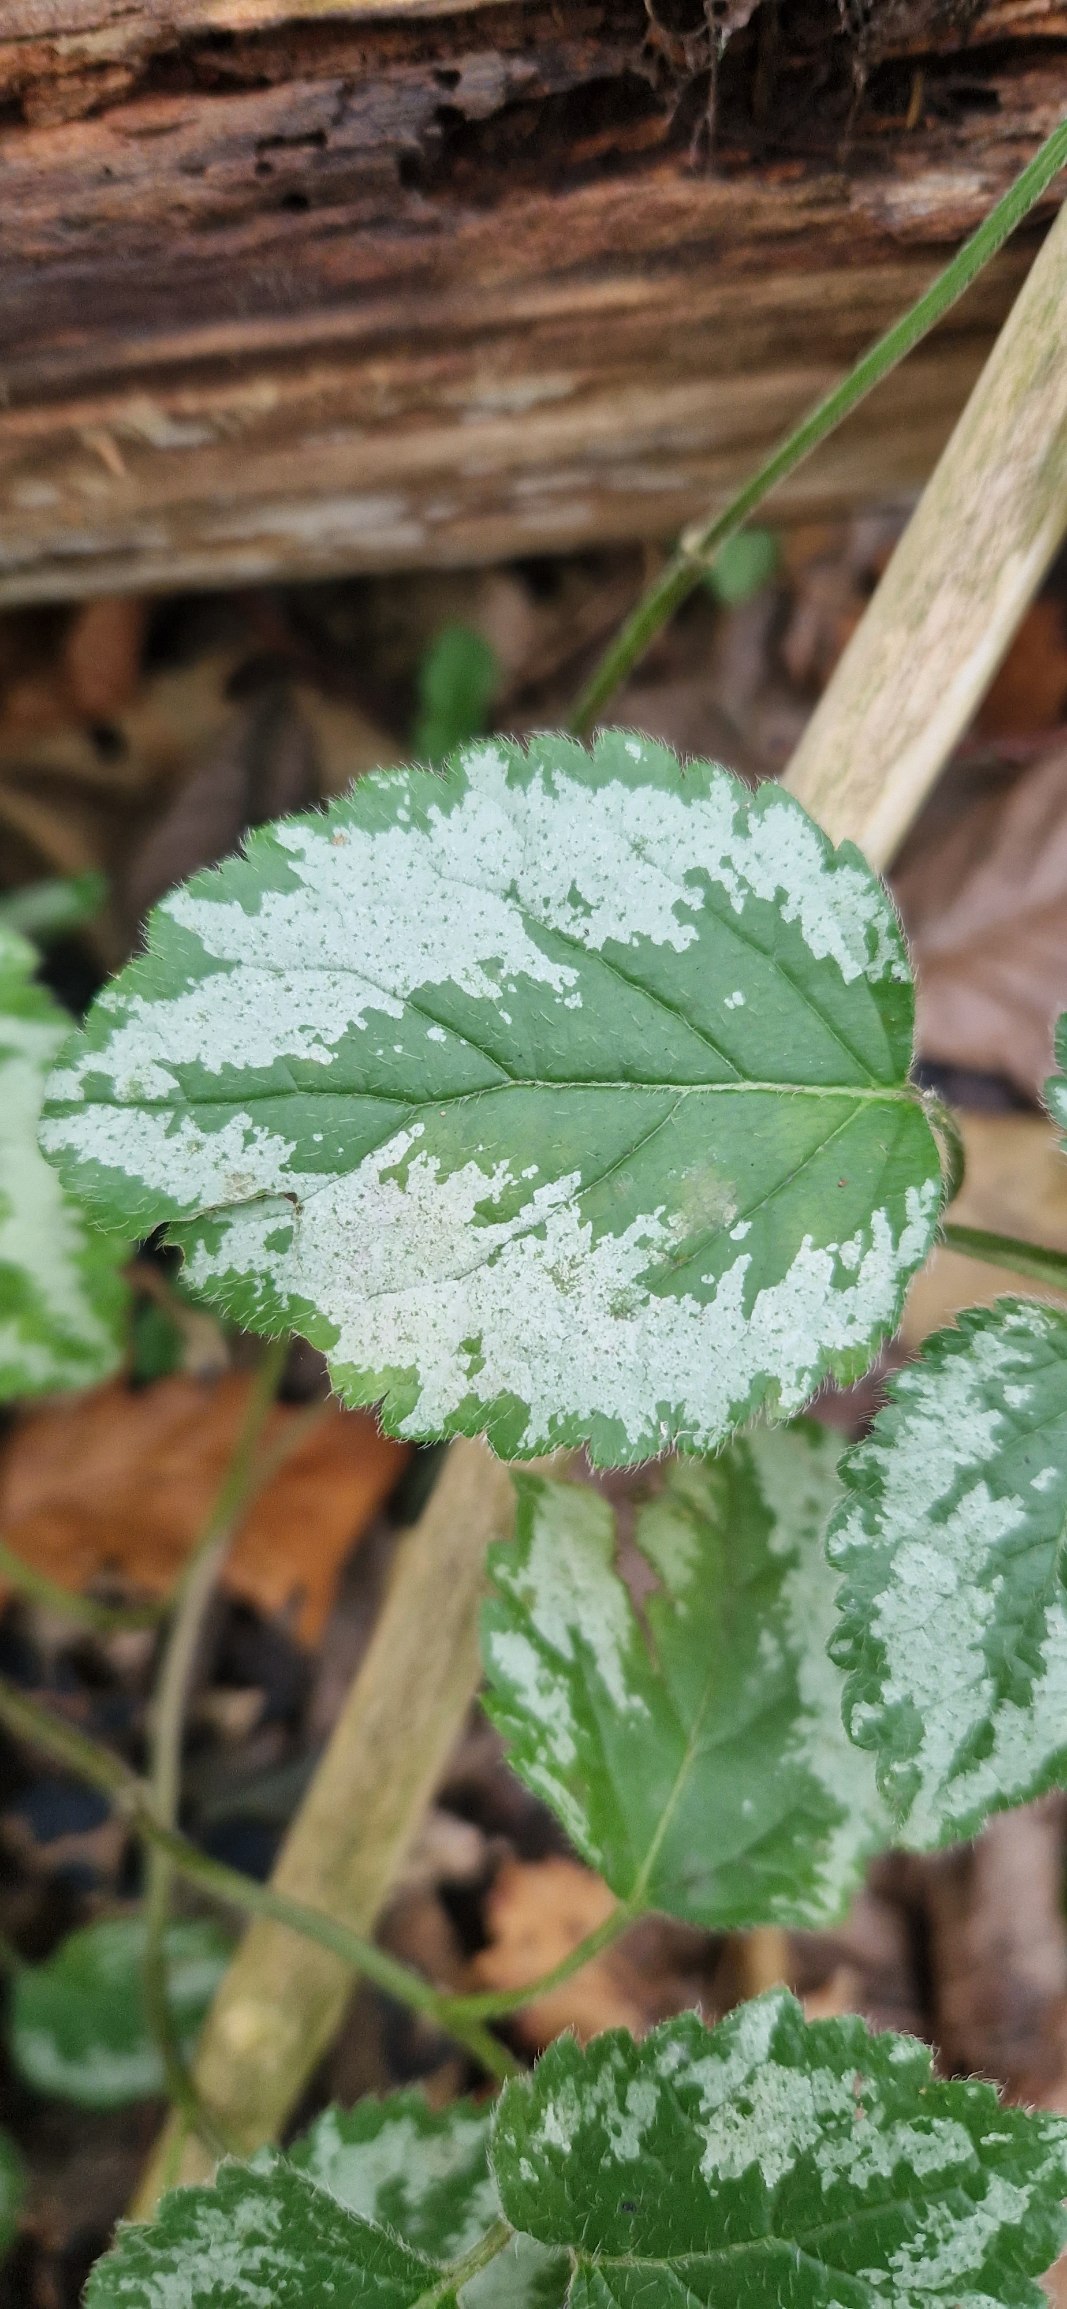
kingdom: Plantae
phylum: Tracheophyta
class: Magnoliopsida
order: Lamiales
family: Lamiaceae
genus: Lamium
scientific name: Lamium galeobdolon
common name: Have-guldnælde
